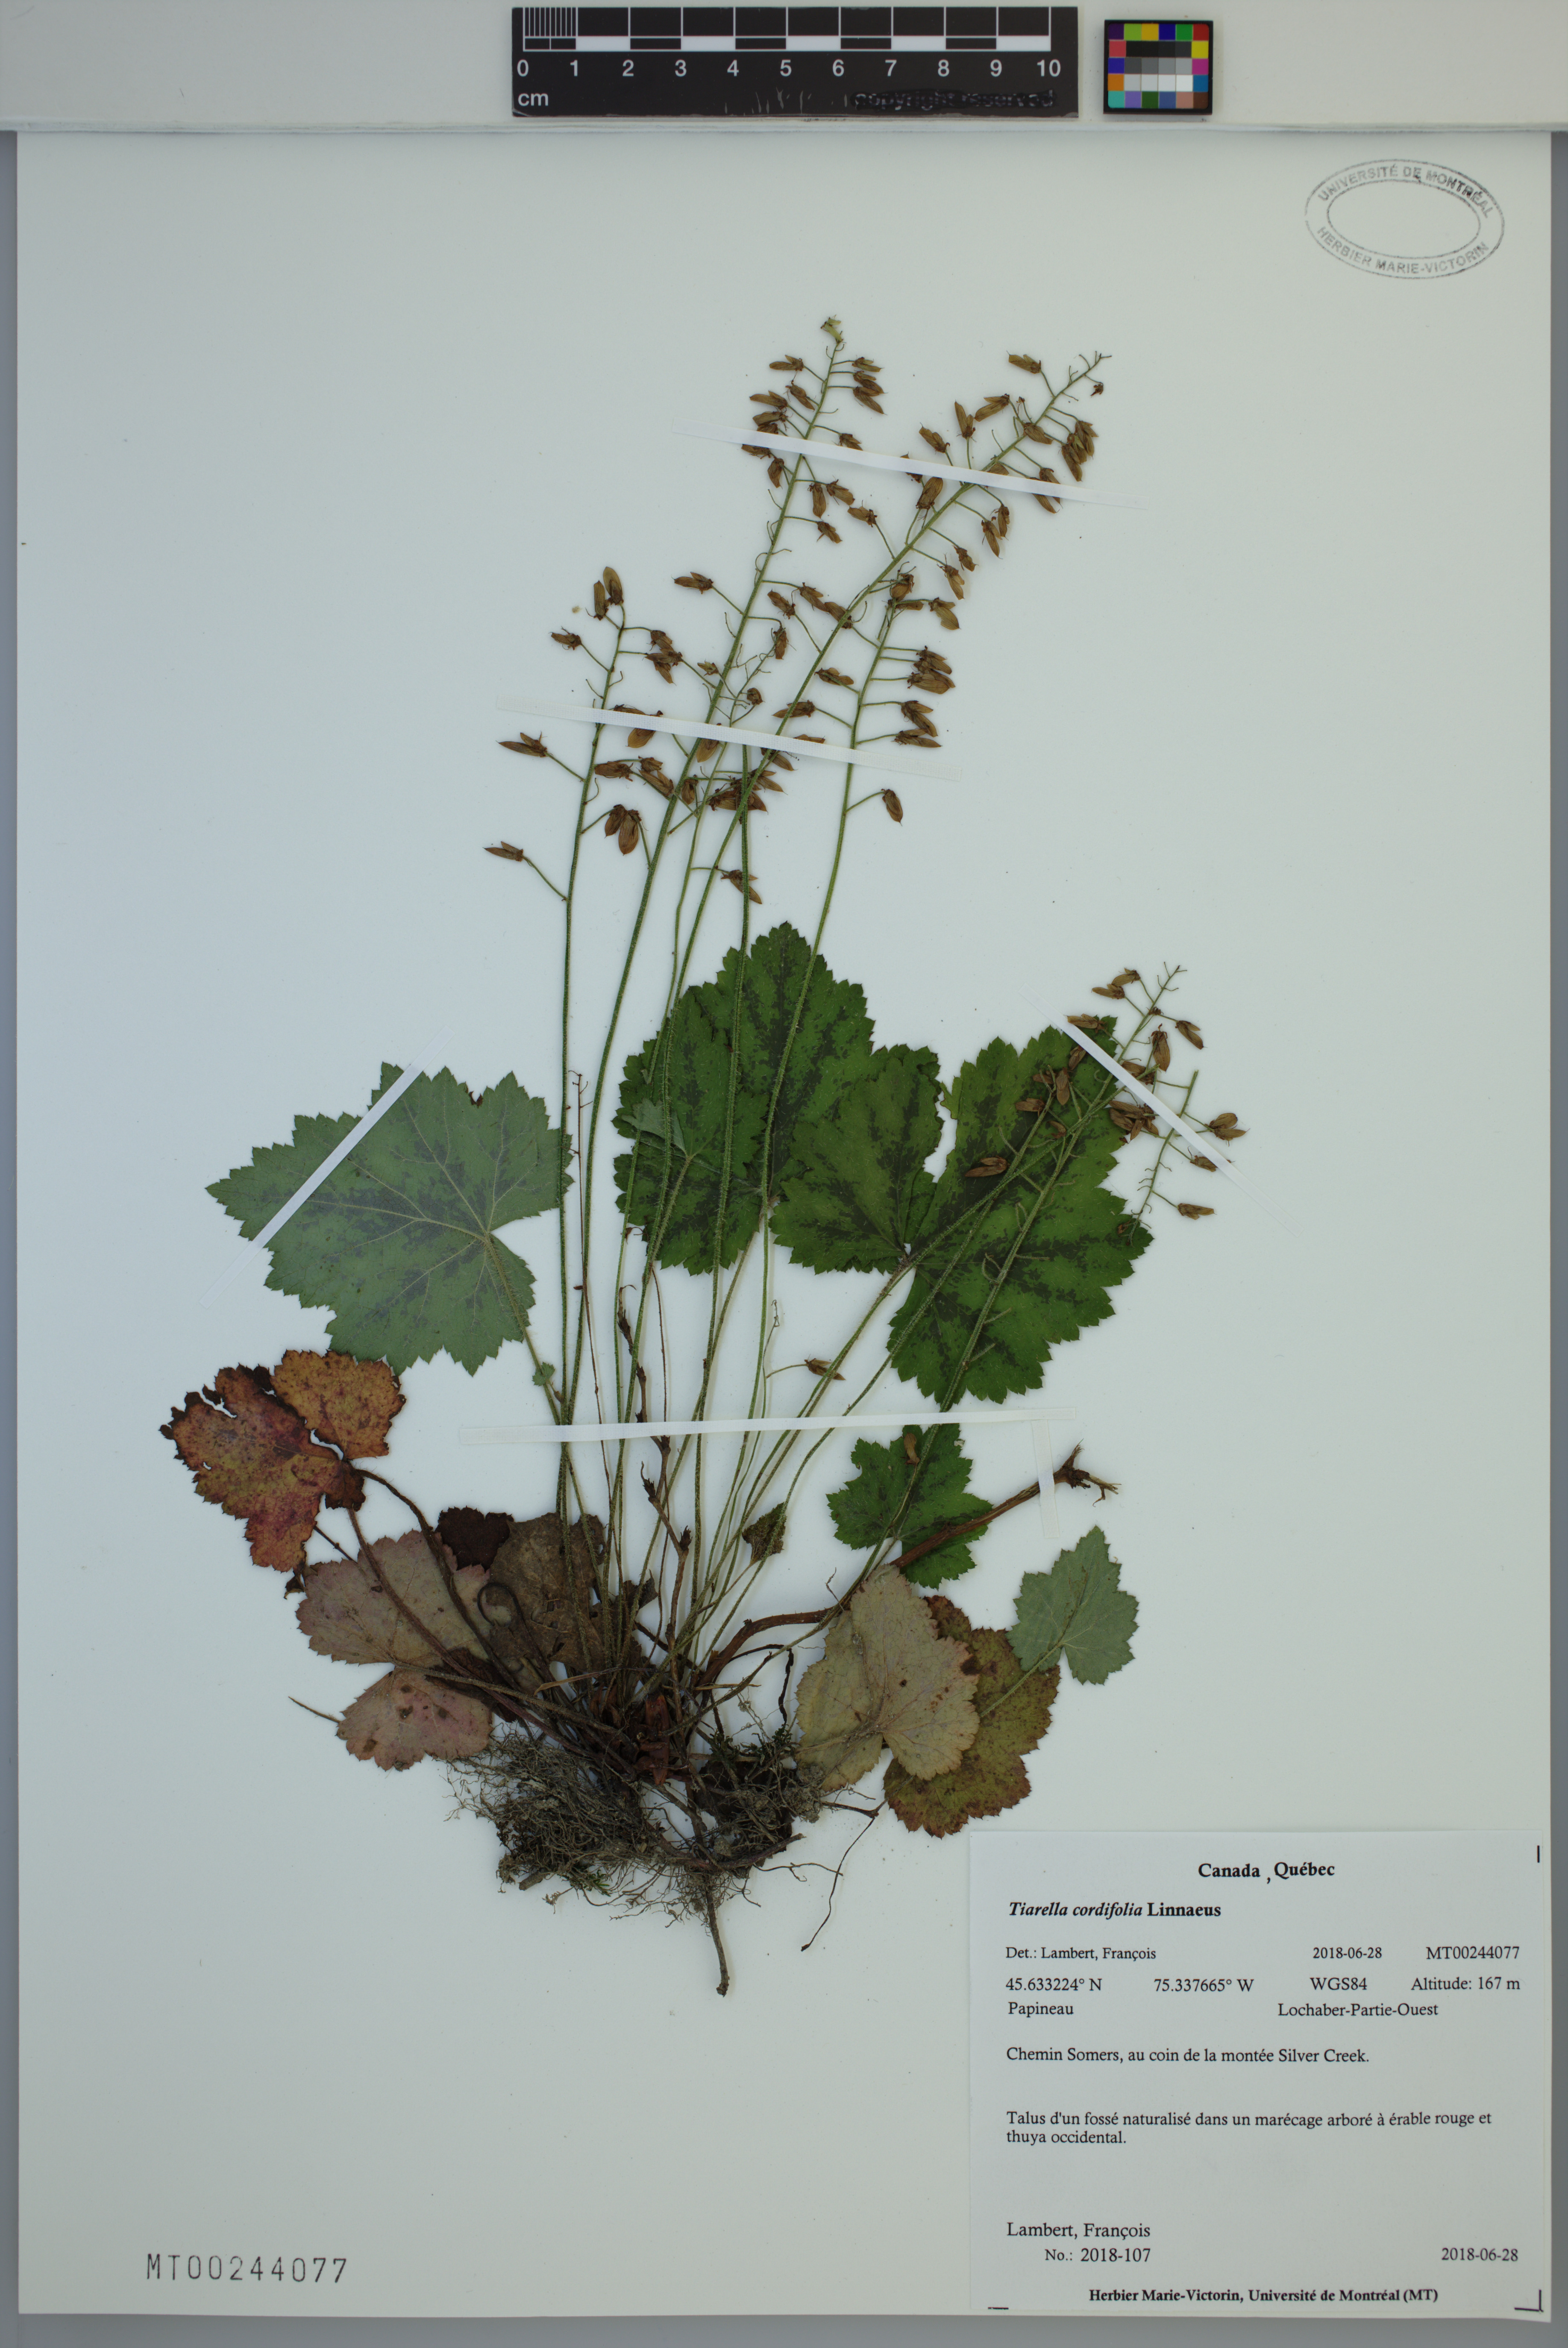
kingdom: Plantae
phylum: Tracheophyta
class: Magnoliopsida
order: Saxifragales
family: Saxifragaceae
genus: Tiarella
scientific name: Tiarella cordifolia
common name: Foamflower
